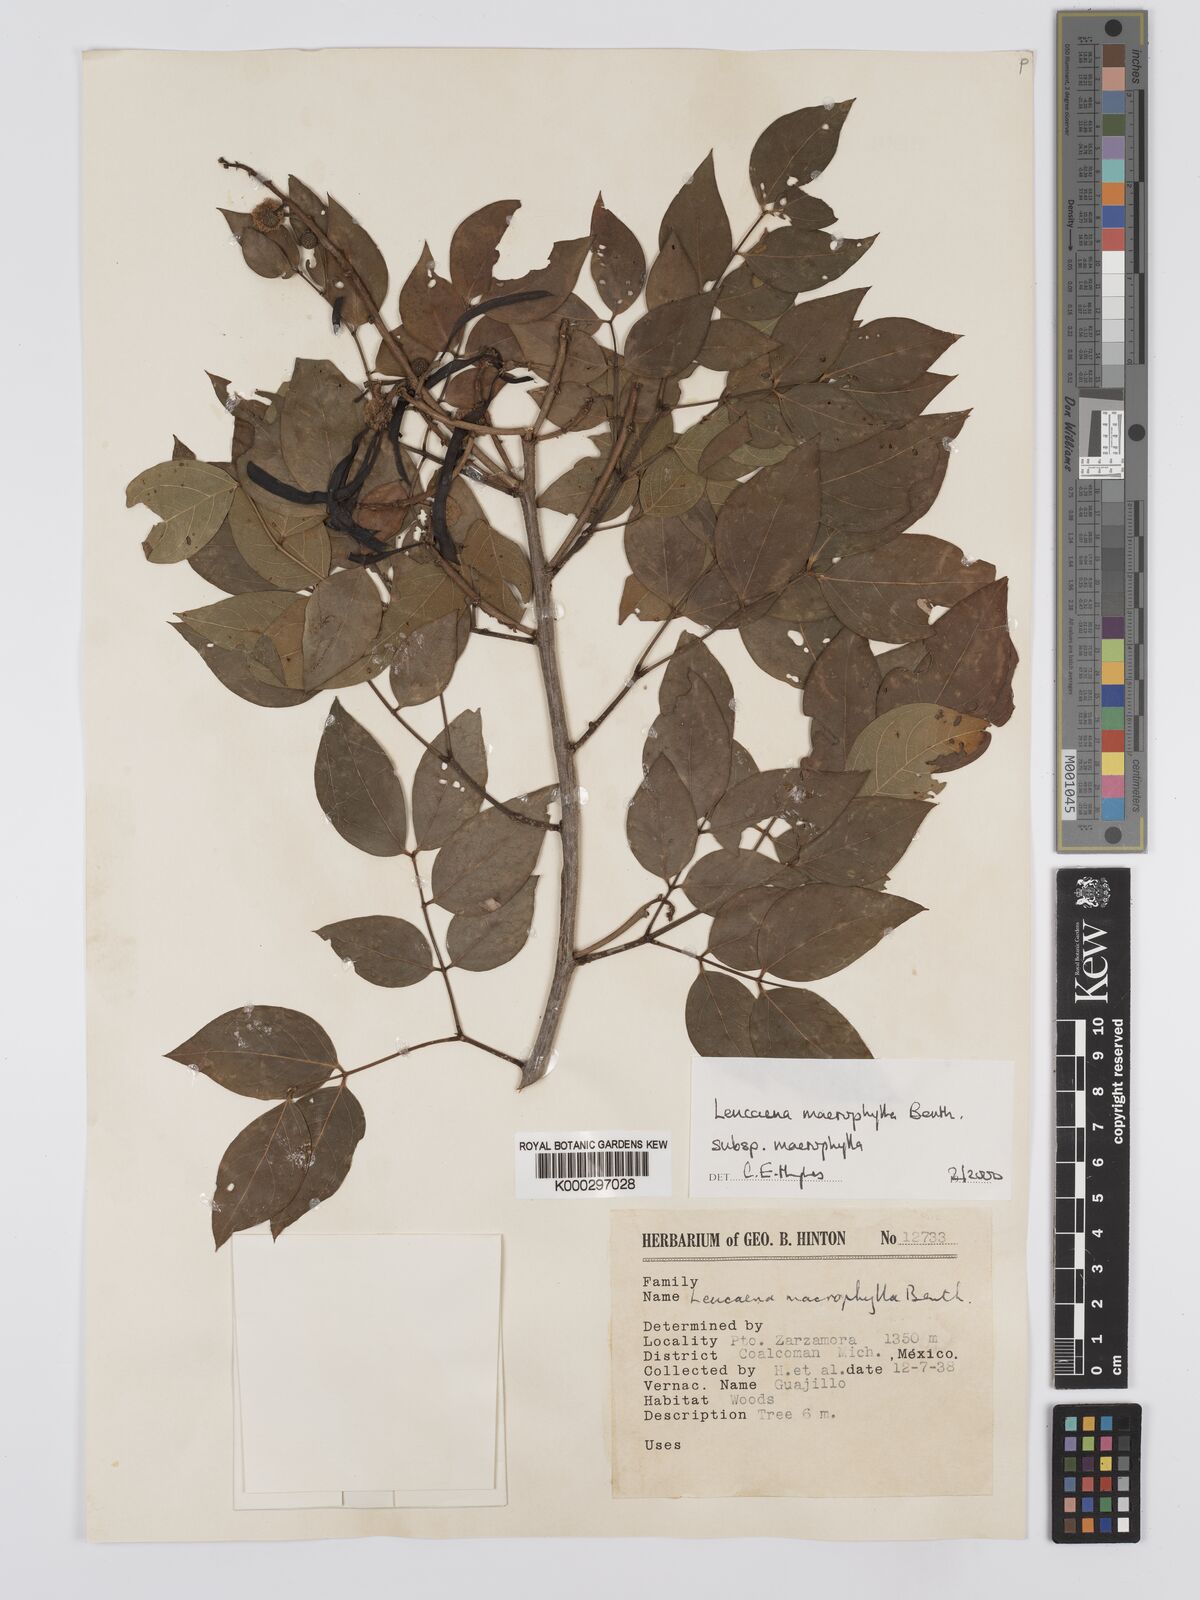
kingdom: Plantae
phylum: Tracheophyta
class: Magnoliopsida
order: Fabales
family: Fabaceae
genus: Leucaena
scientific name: Leucaena macrophylla
